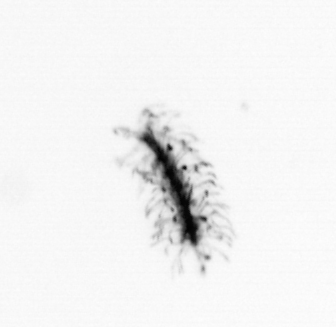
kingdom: Chromista
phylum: Ochrophyta
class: Bacillariophyceae
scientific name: Bacillariophyceae
